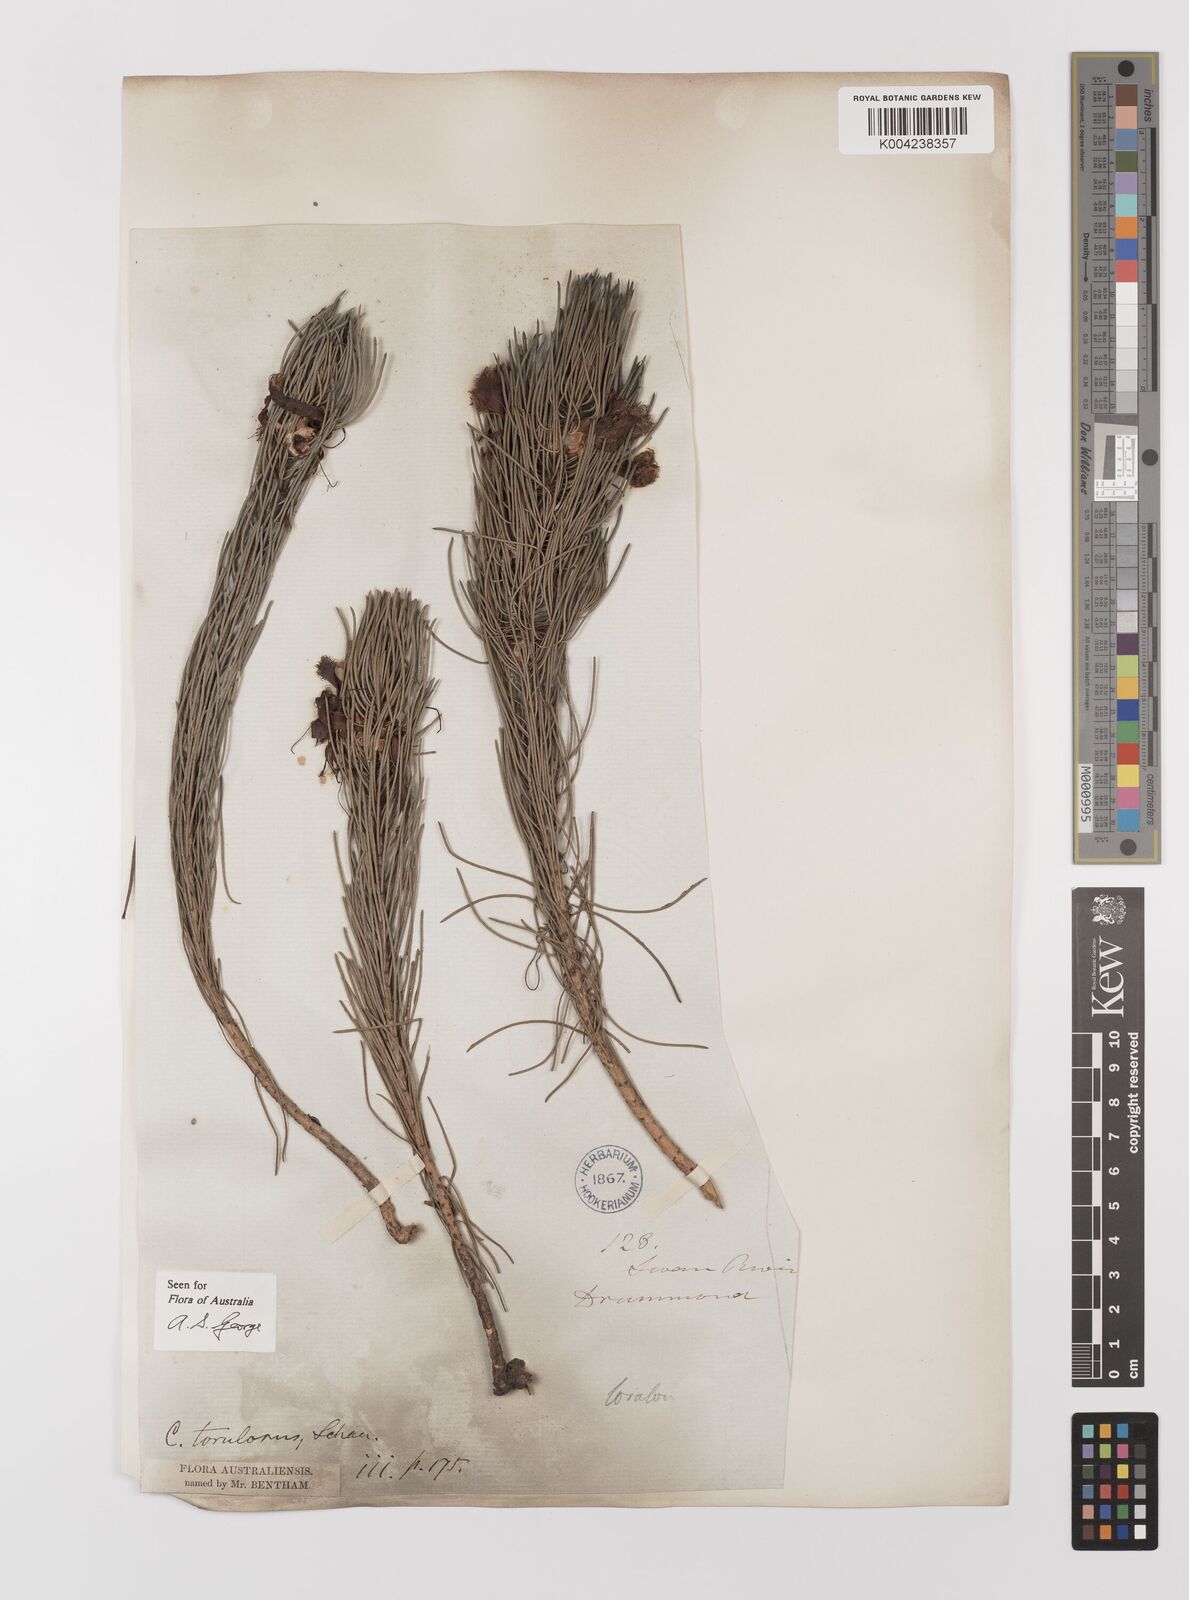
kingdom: Plantae
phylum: Tracheophyta
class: Magnoliopsida
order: Myrtales
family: Myrtaceae
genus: Melaleuca
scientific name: Melaleuca torulosa
